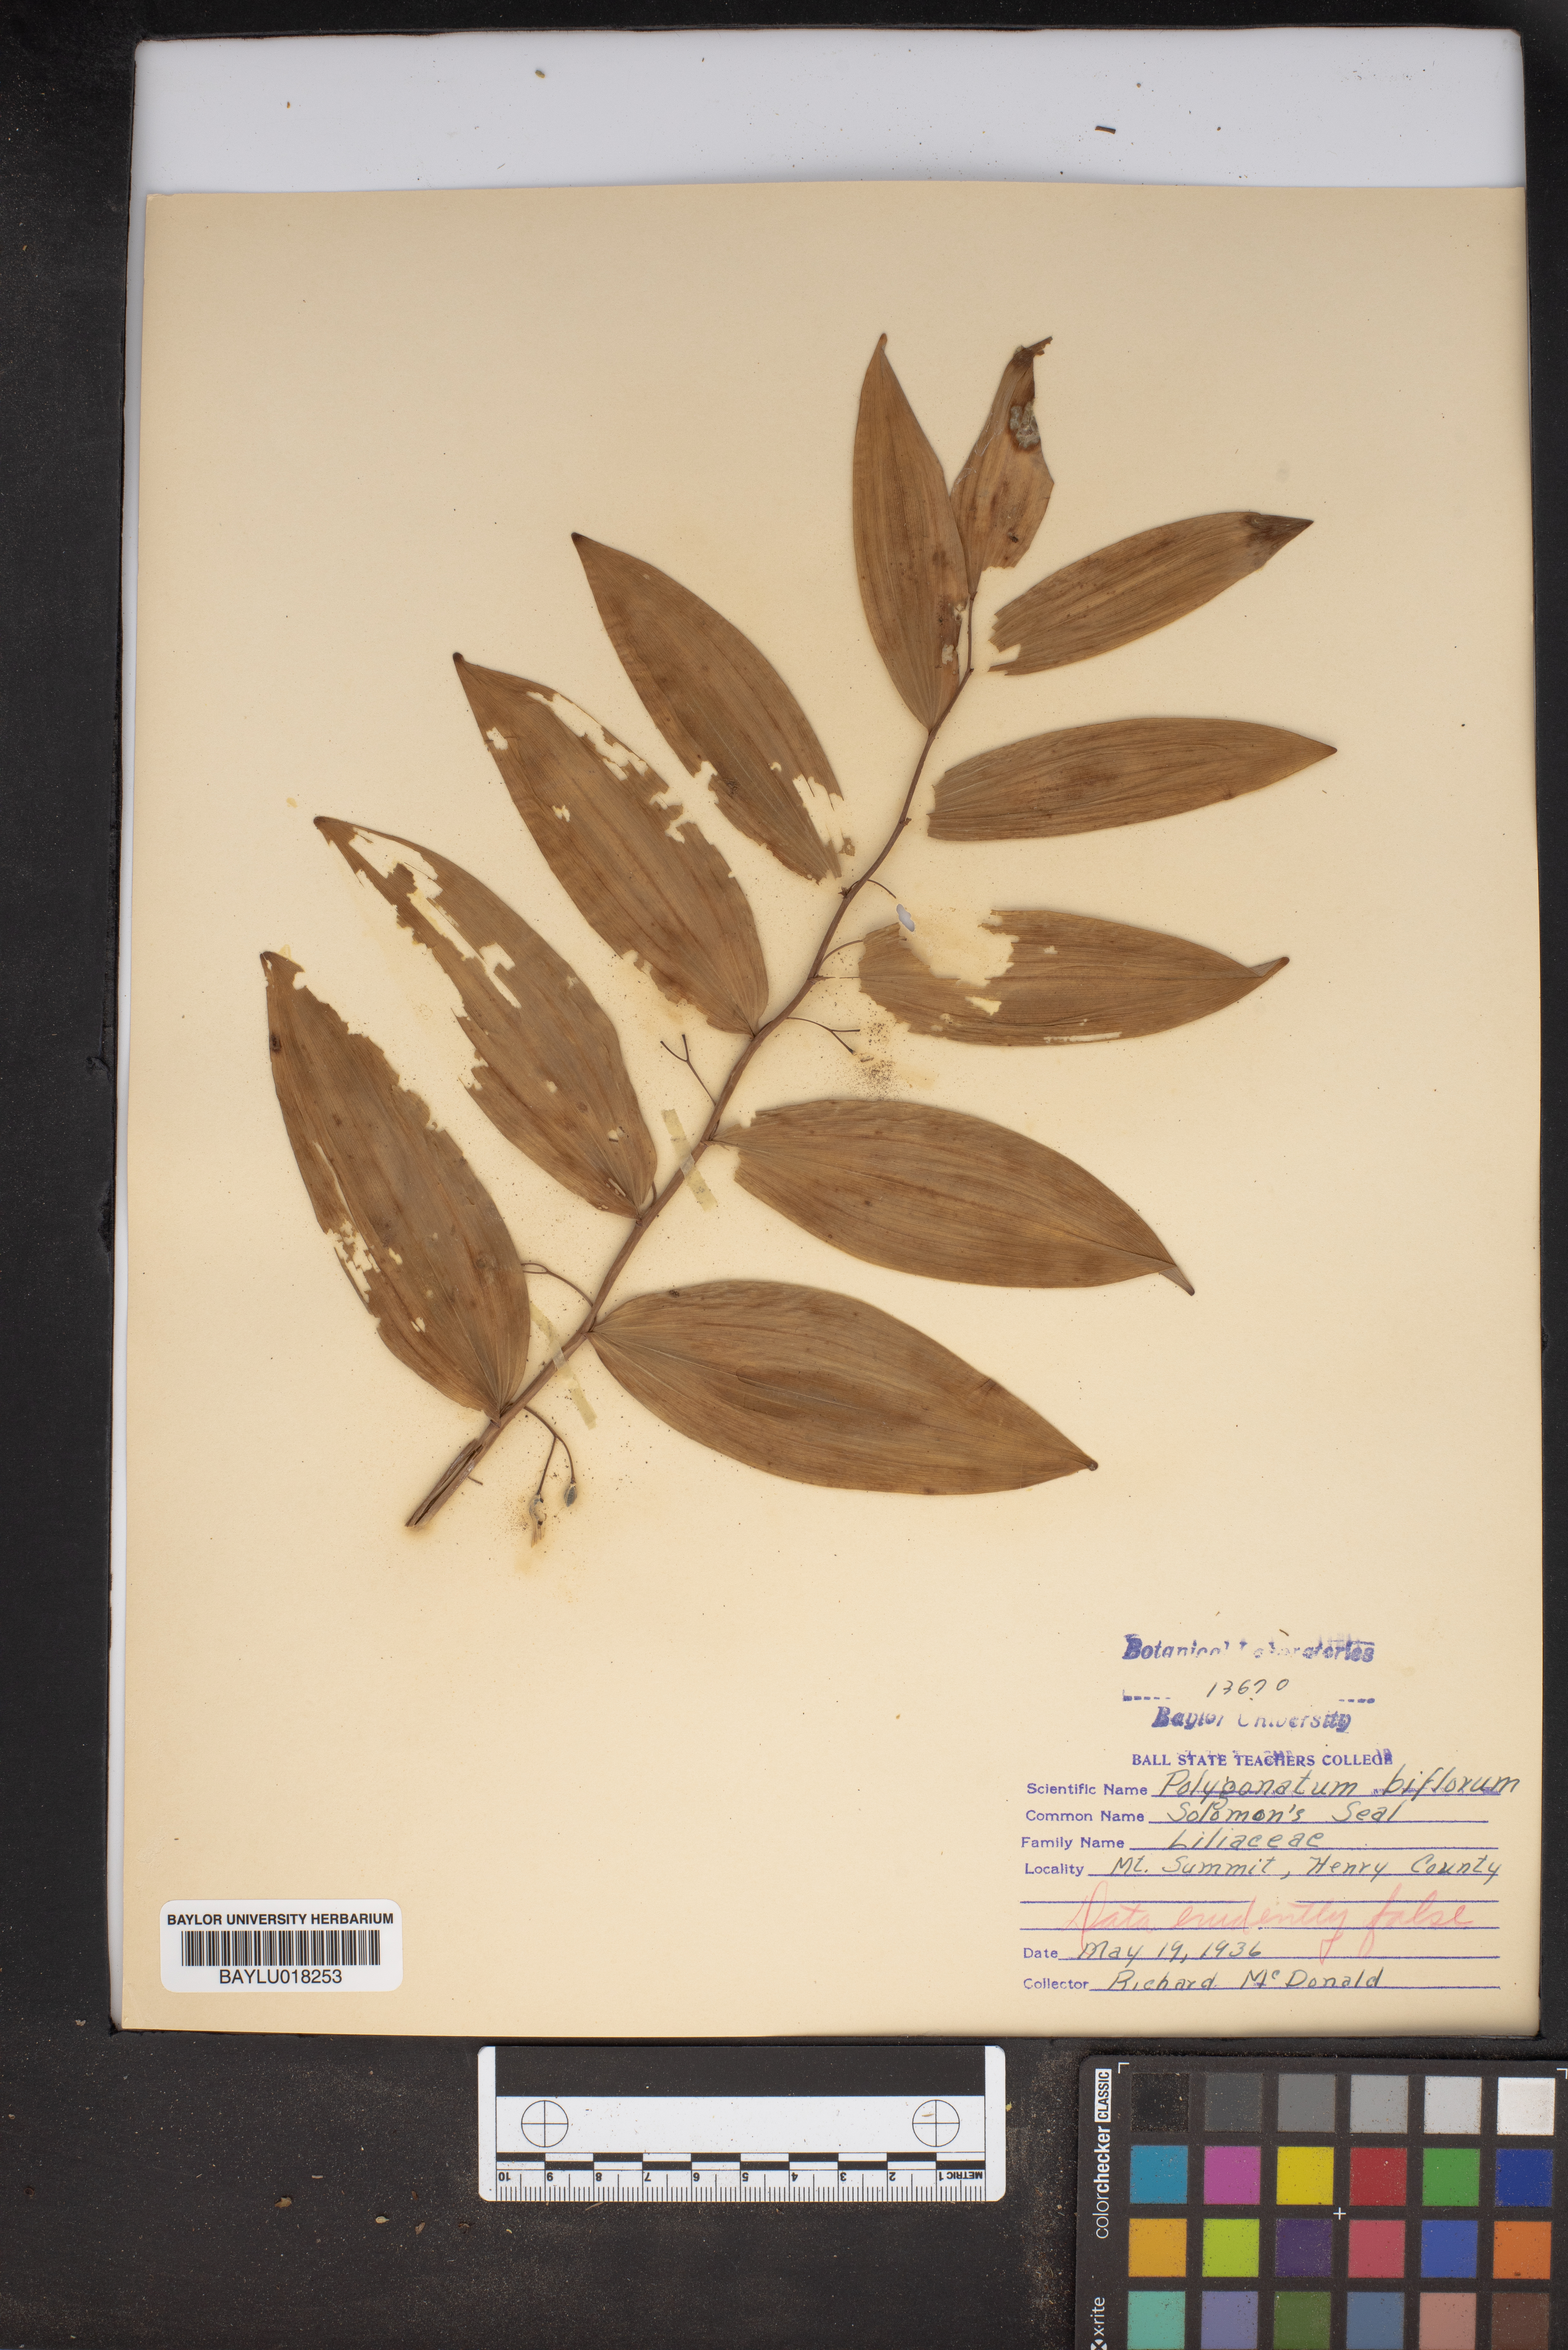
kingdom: Plantae
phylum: Tracheophyta
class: Liliopsida
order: Asparagales
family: Asparagaceae
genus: Polygonatum
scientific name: Polygonatum biflorum
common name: American solomon's-seal
